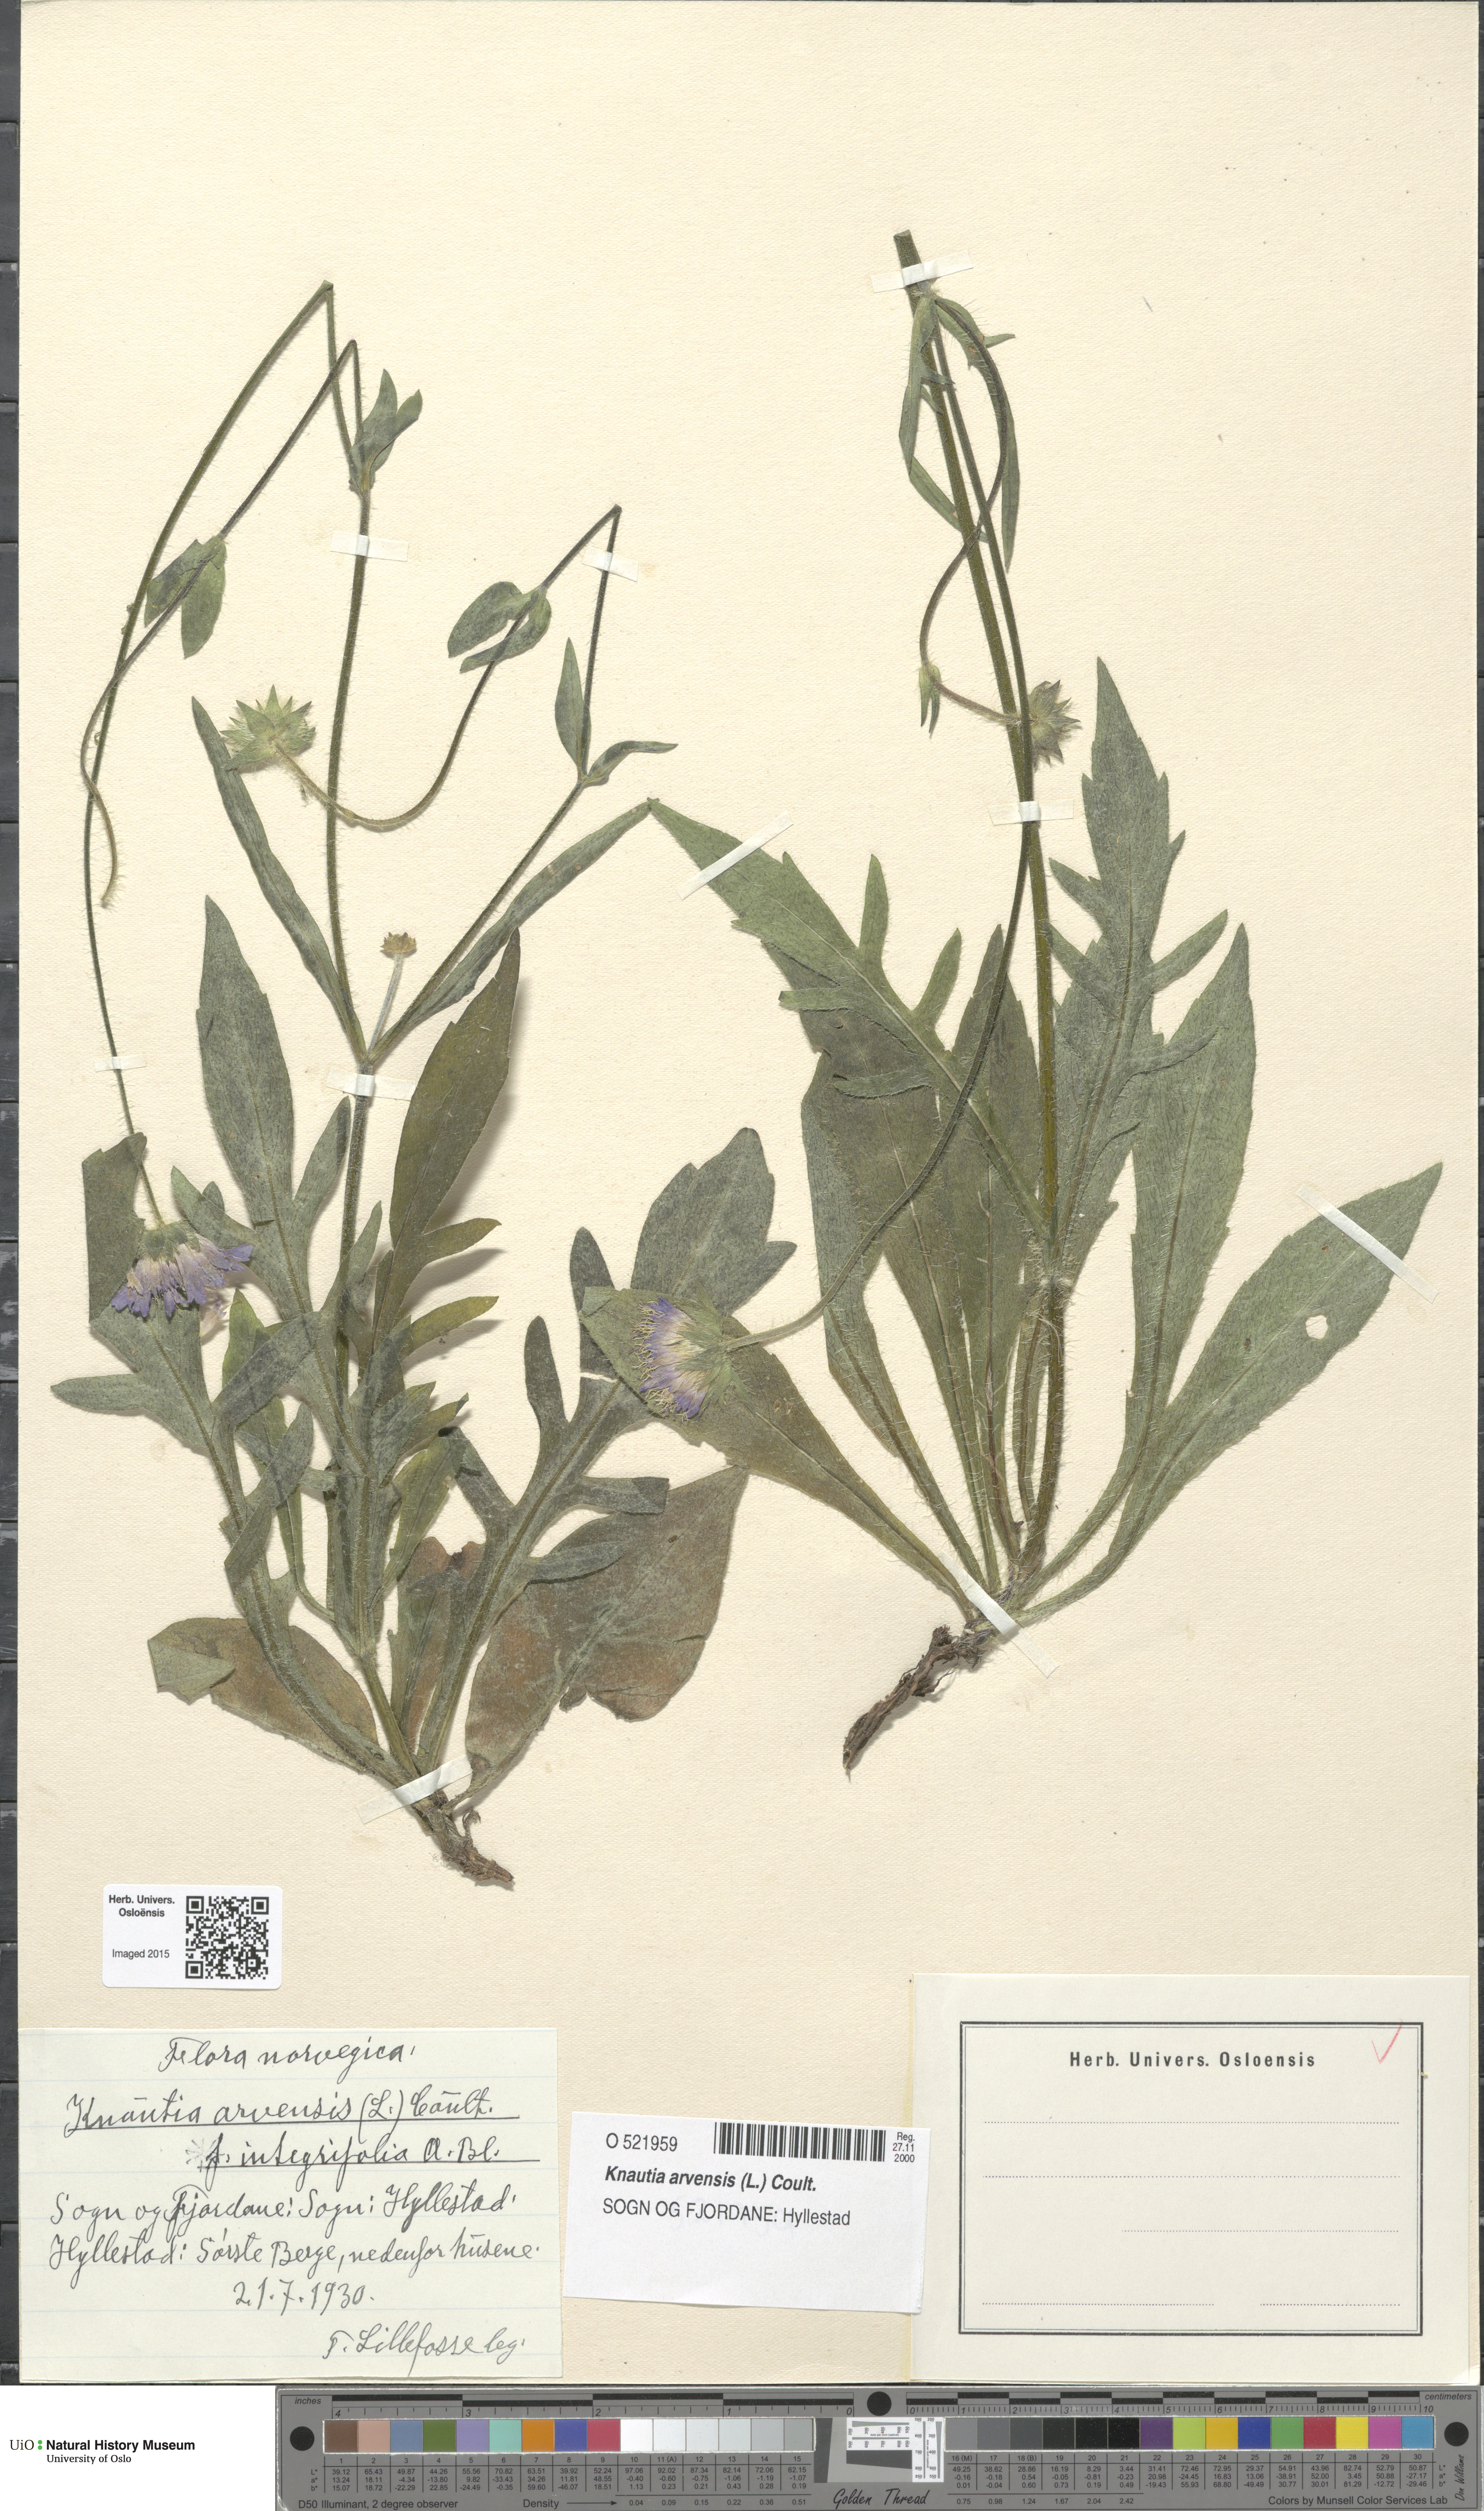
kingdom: Plantae
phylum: Tracheophyta
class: Magnoliopsida
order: Dipsacales
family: Caprifoliaceae
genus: Knautia
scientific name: Knautia arvensis
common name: Field scabiosa
